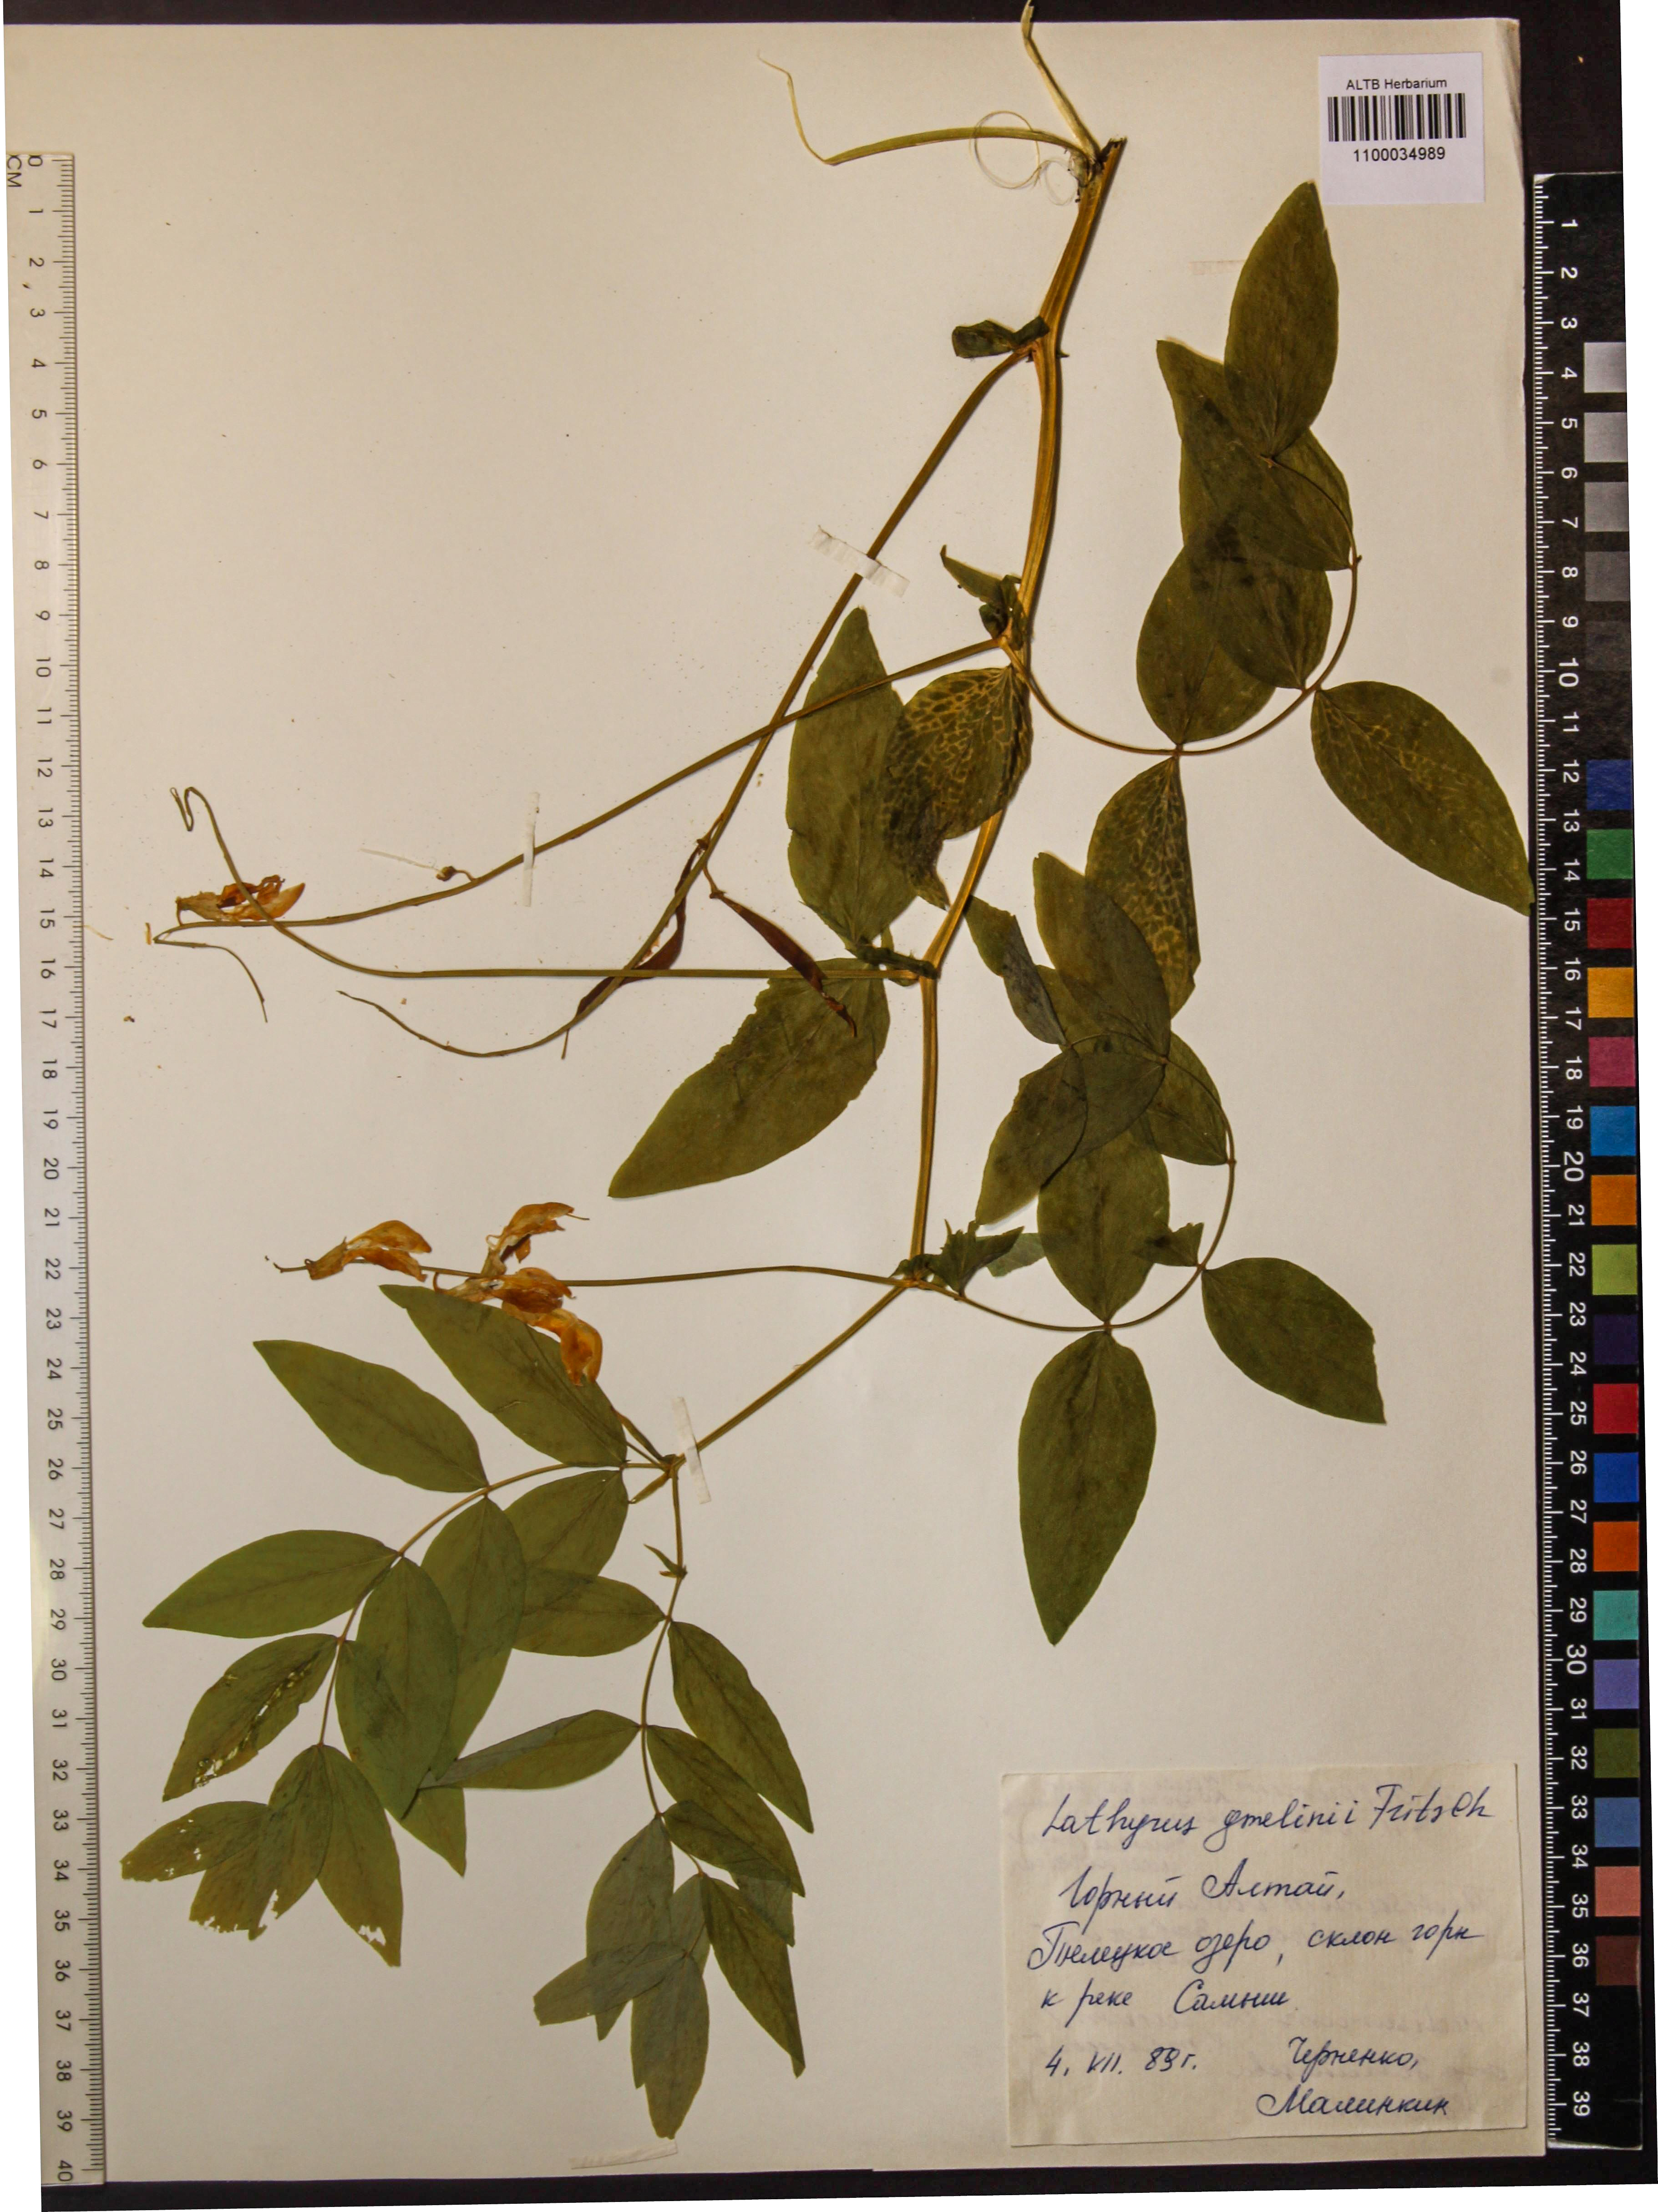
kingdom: Plantae
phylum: Tracheophyta
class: Magnoliopsida
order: Fabales
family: Fabaceae
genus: Lathyrus
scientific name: Lathyrus gmelinii
